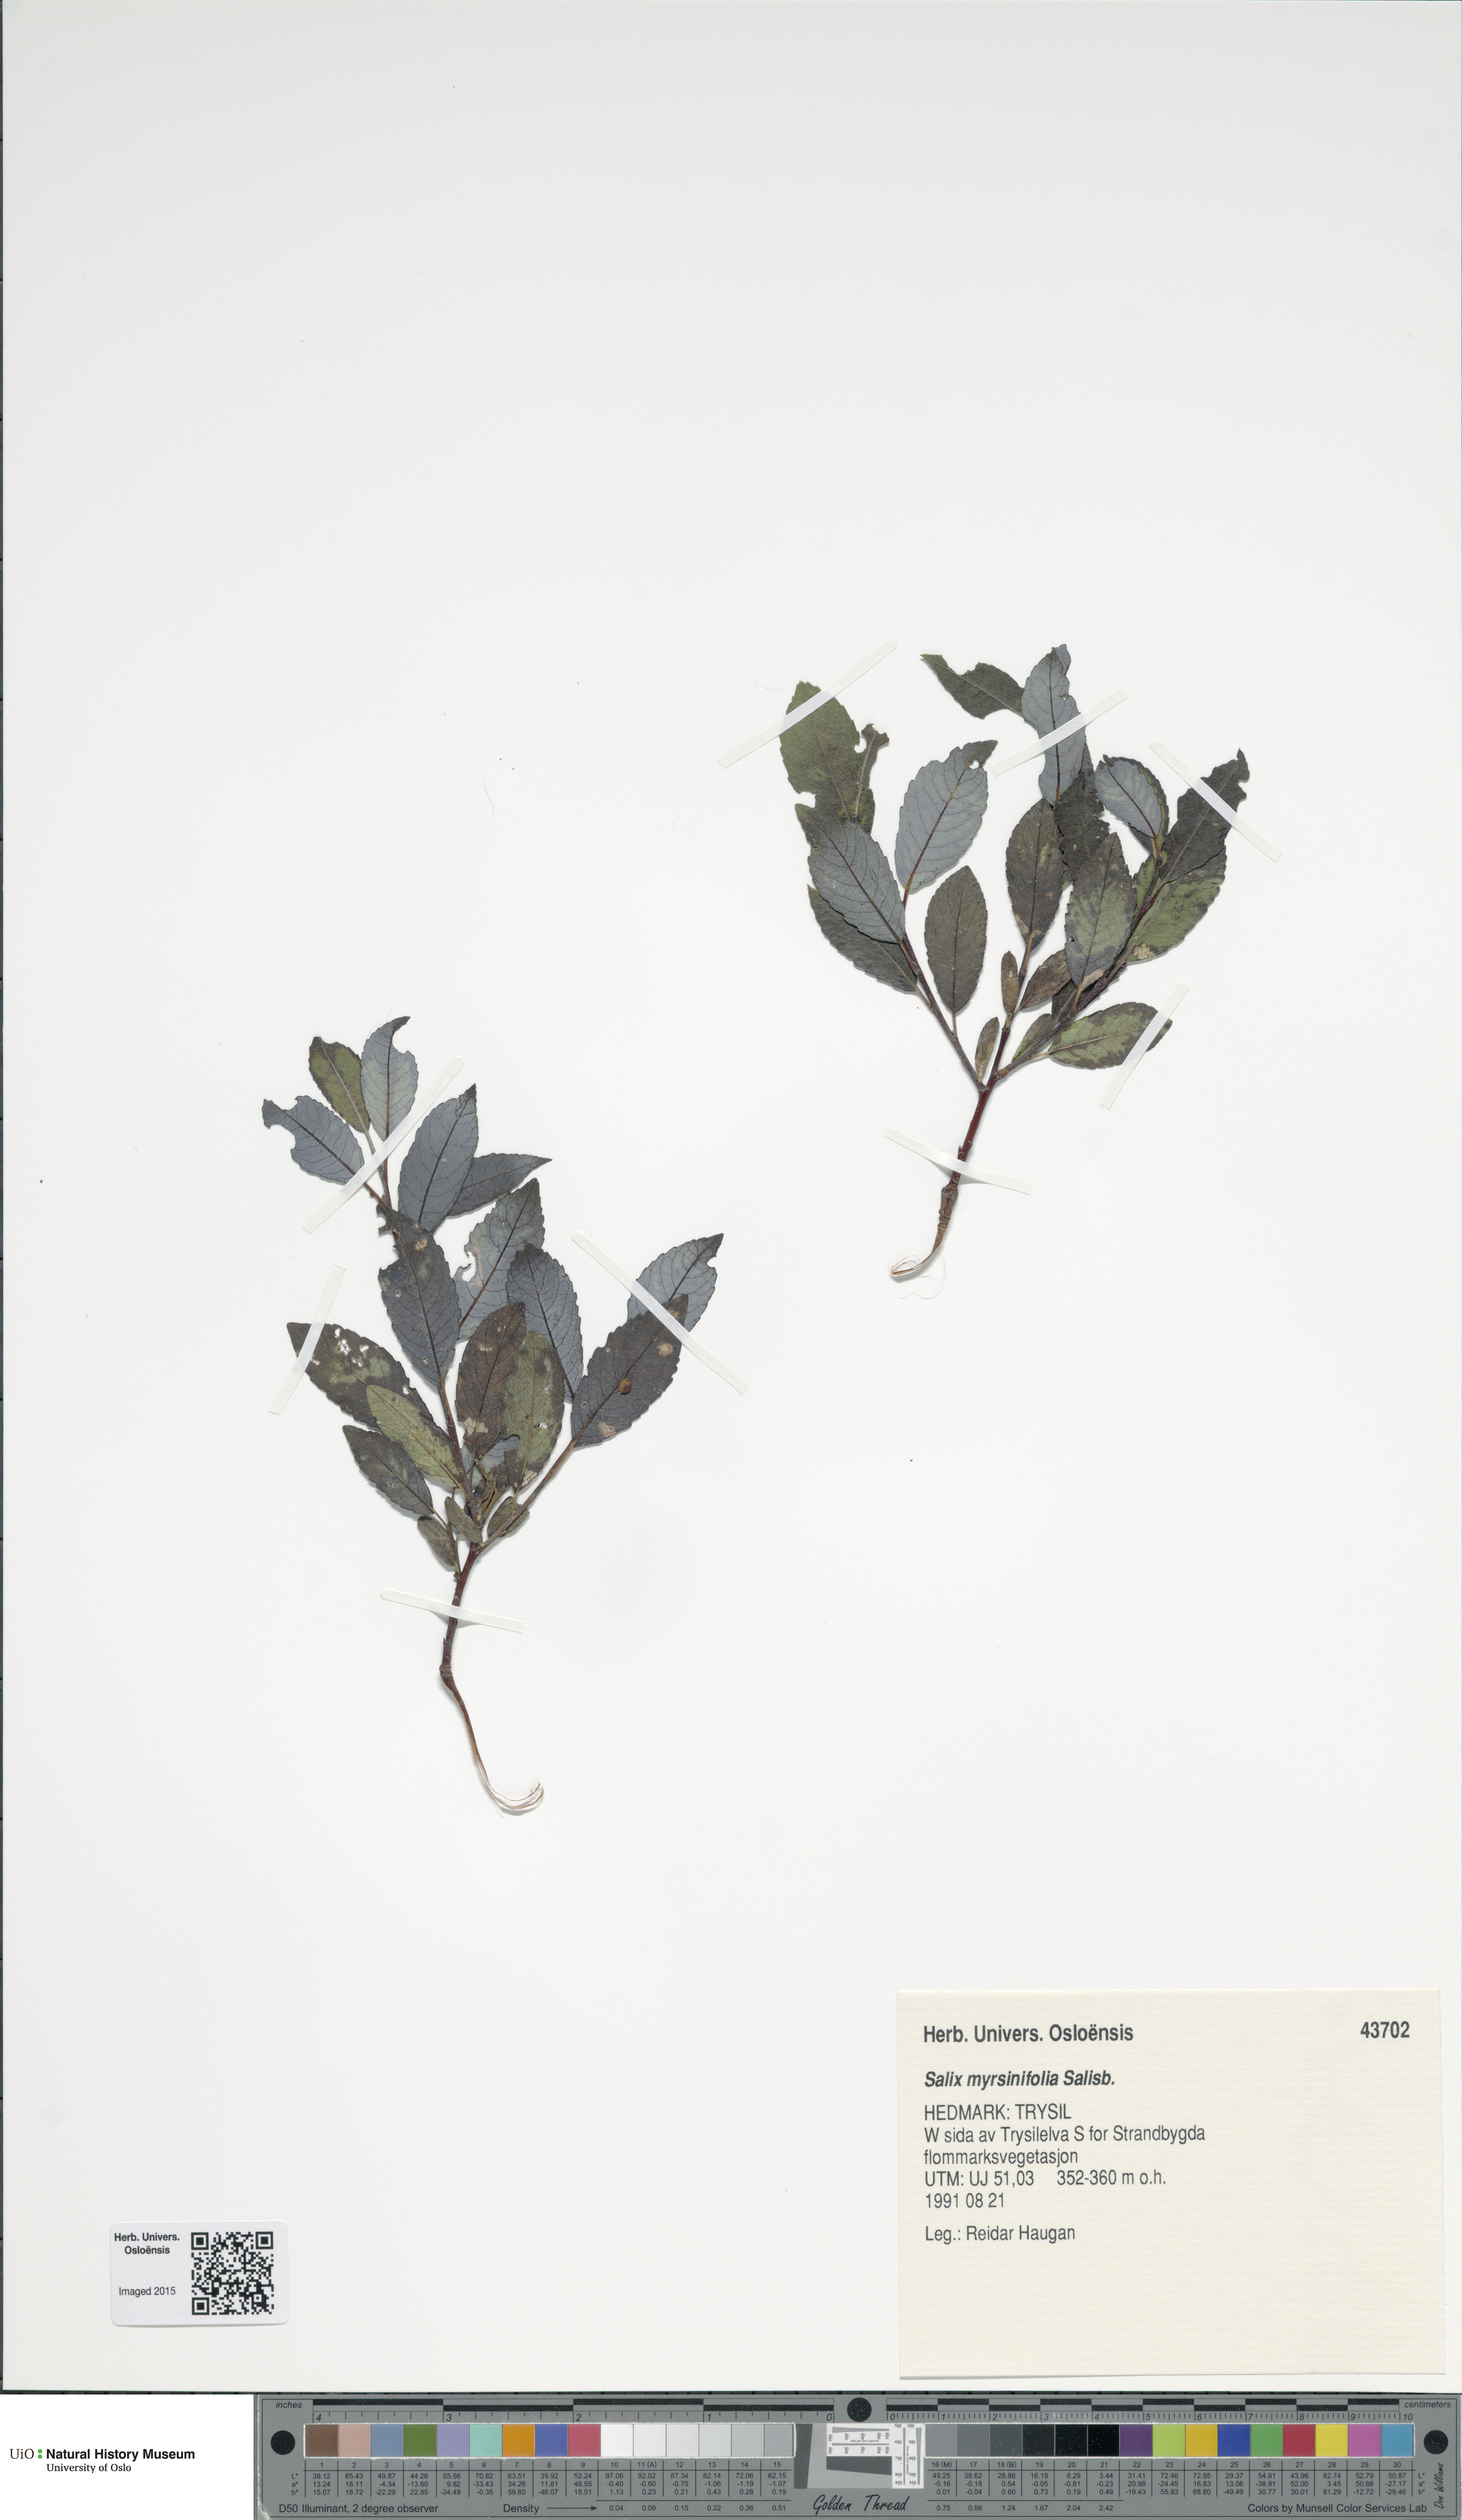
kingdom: Plantae
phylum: Tracheophyta
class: Magnoliopsida
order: Malpighiales
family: Salicaceae
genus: Salix
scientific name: Salix myrsinifolia
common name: Dark-leaved willow
